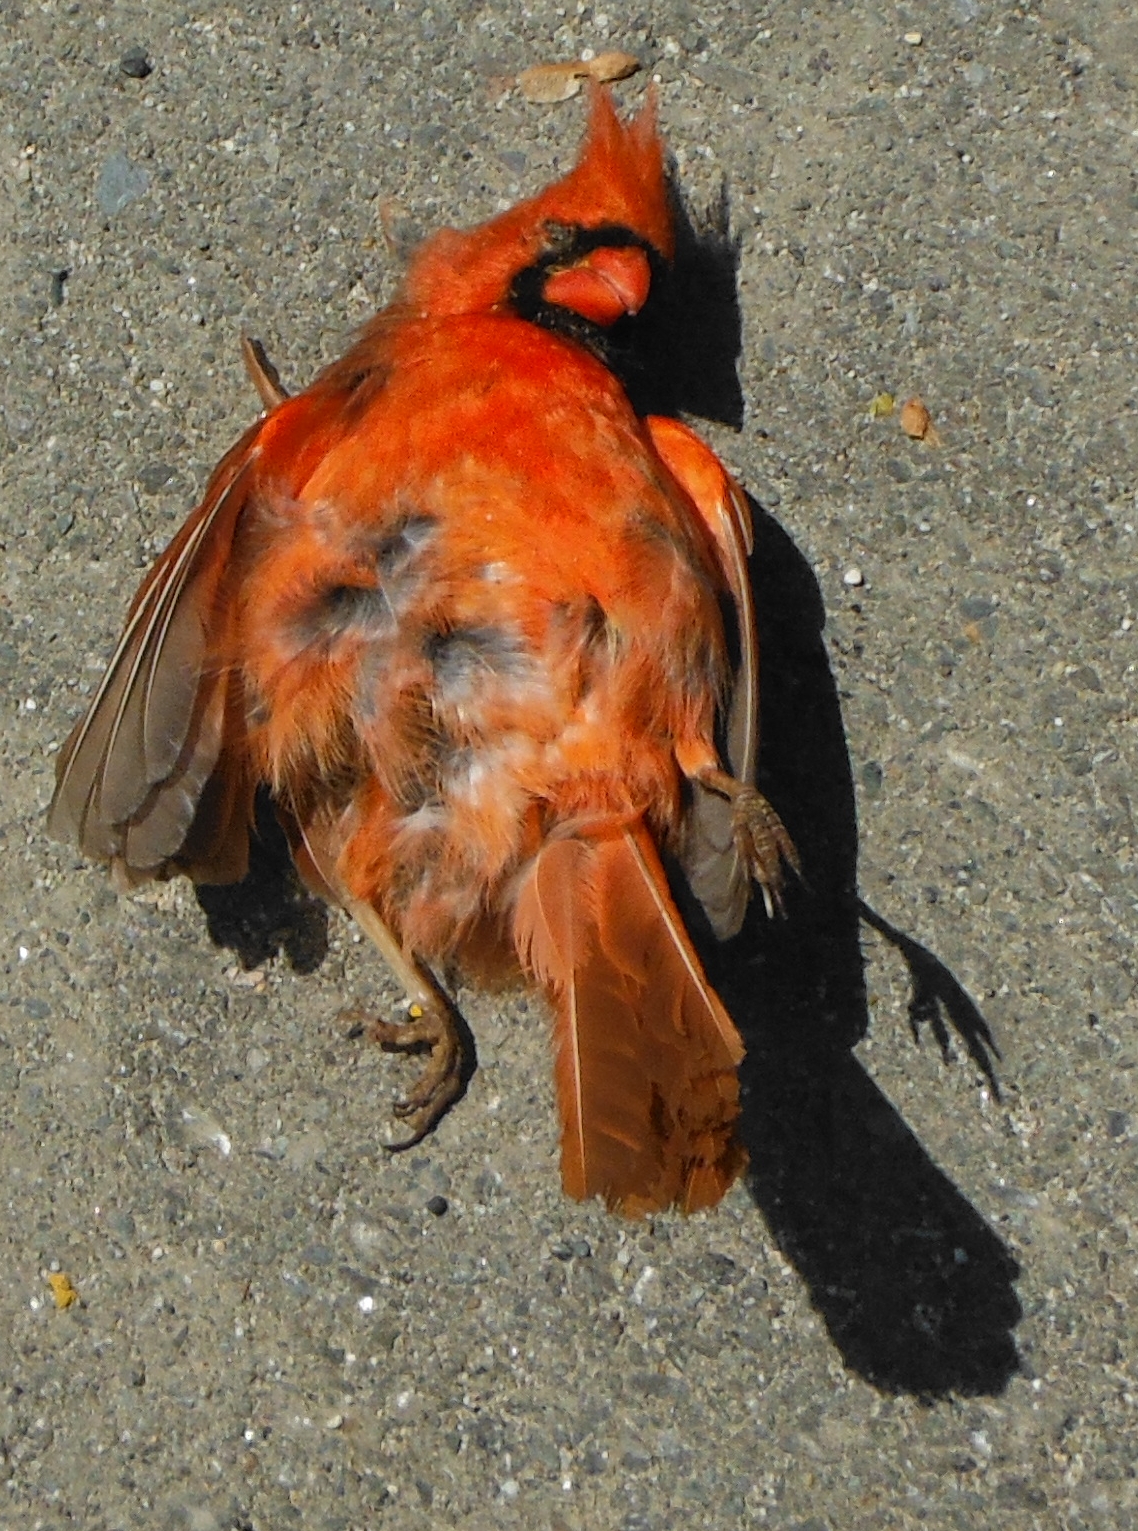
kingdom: Animalia
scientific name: Animalia
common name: NA
